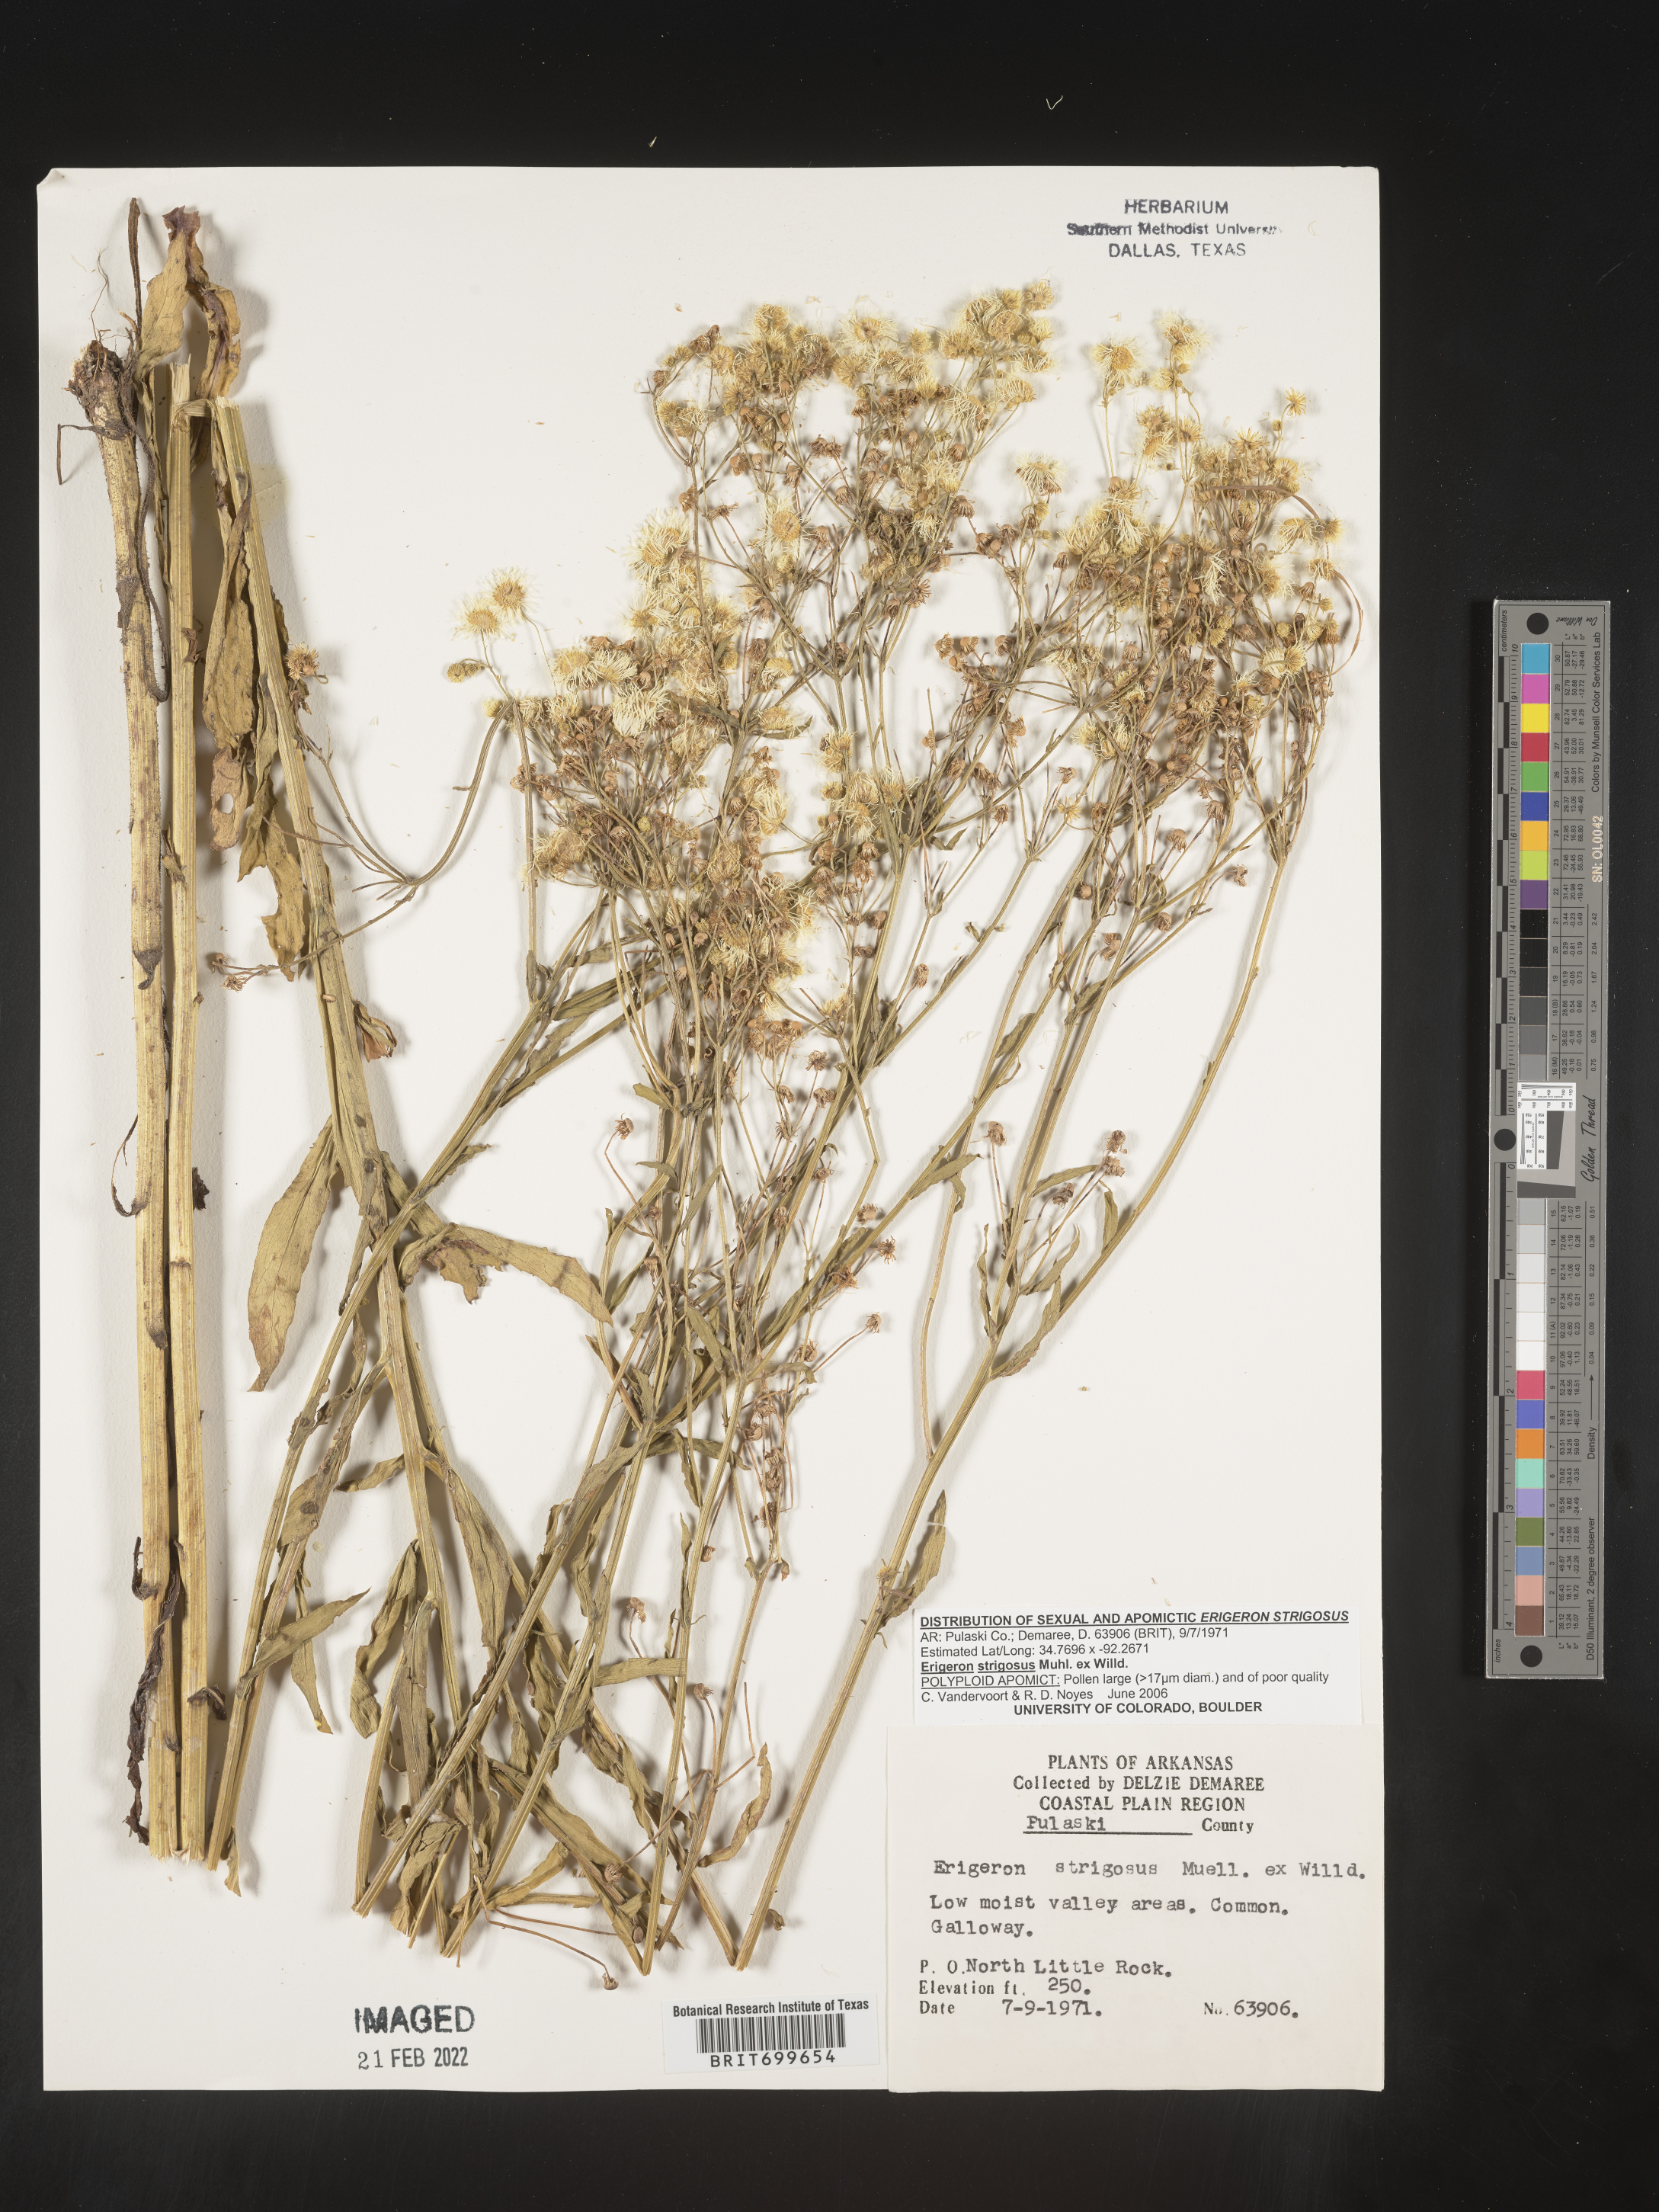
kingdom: Plantae
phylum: Tracheophyta
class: Magnoliopsida
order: Asterales
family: Asteraceae
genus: Erigeron
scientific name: Erigeron strigosus
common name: Common eastern fleabane
